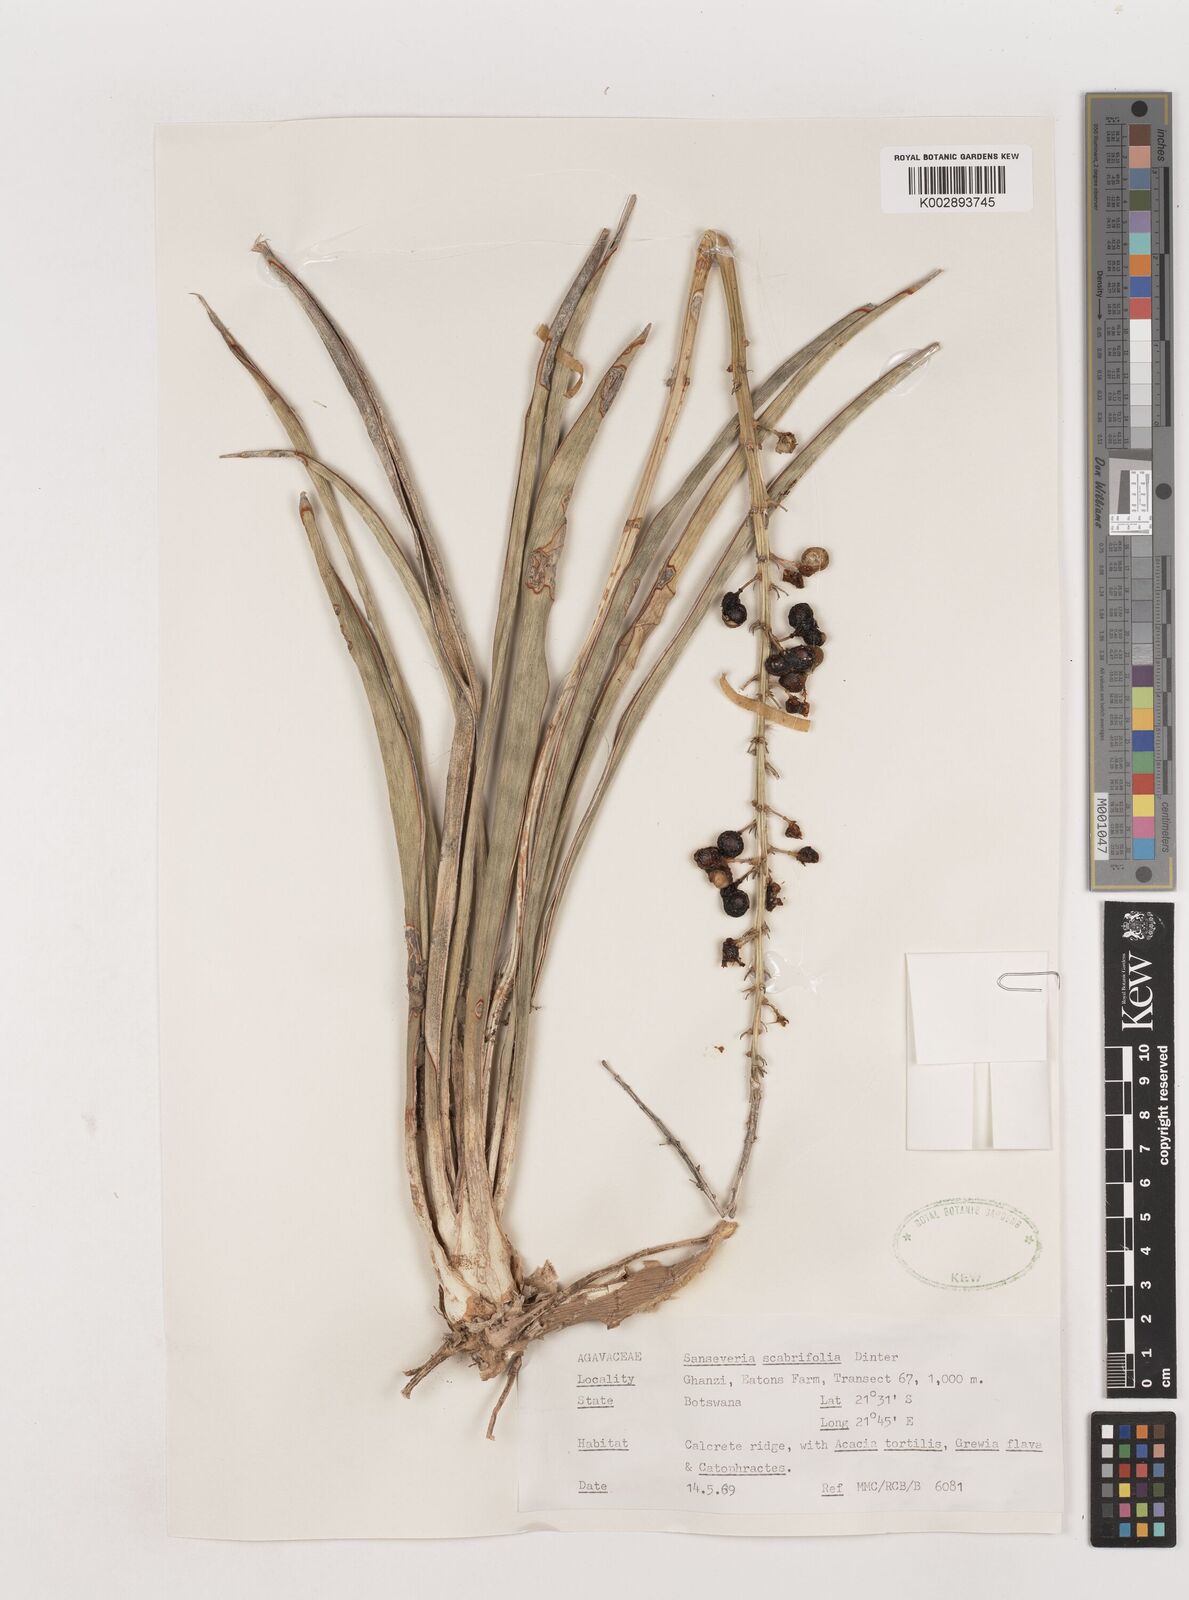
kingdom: Plantae
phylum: Tracheophyta
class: Liliopsida
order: Asparagales
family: Asparagaceae
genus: Dracaena
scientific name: Dracaena aethiopica
